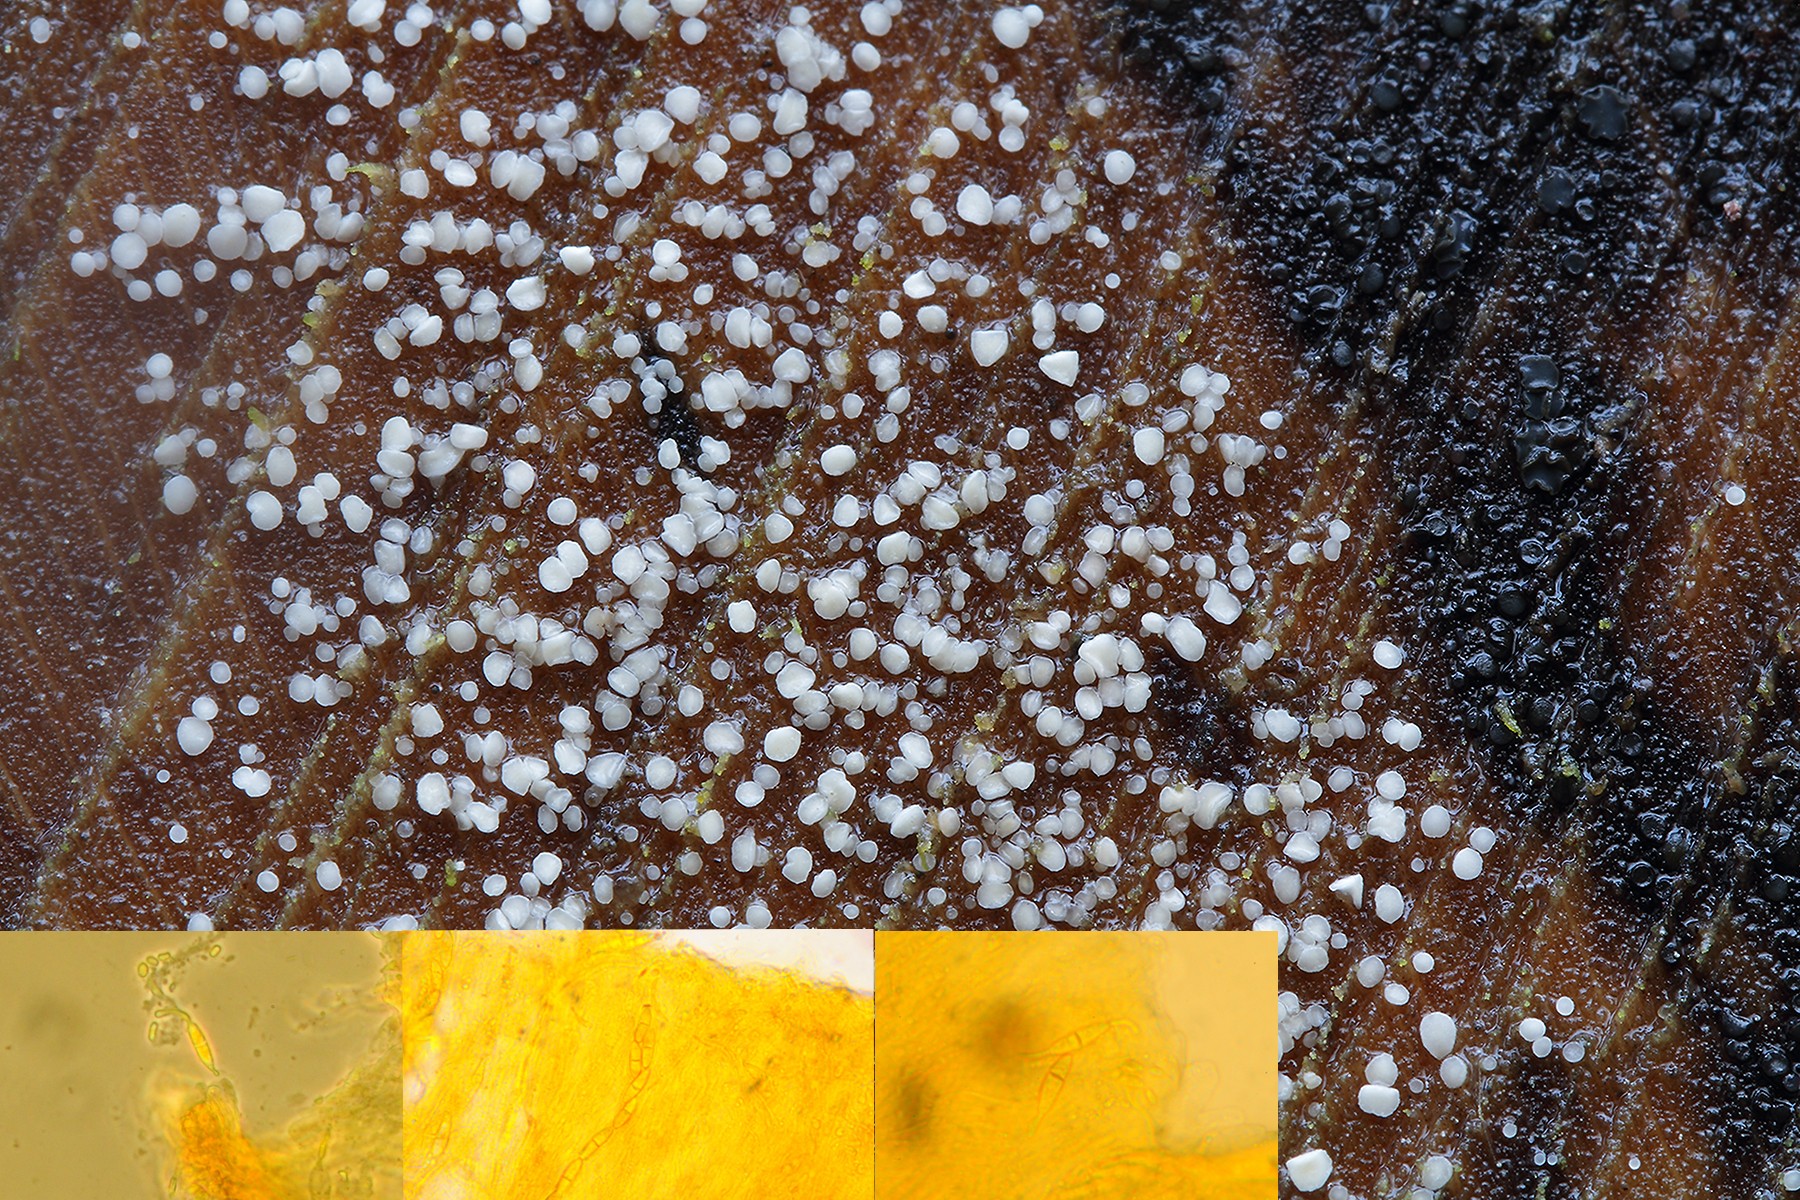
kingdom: Fungi
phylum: Ascomycota
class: Leotiomycetes
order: Helotiales
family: Pezizellaceae
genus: Calycina
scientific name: Calycina
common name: gulskive
